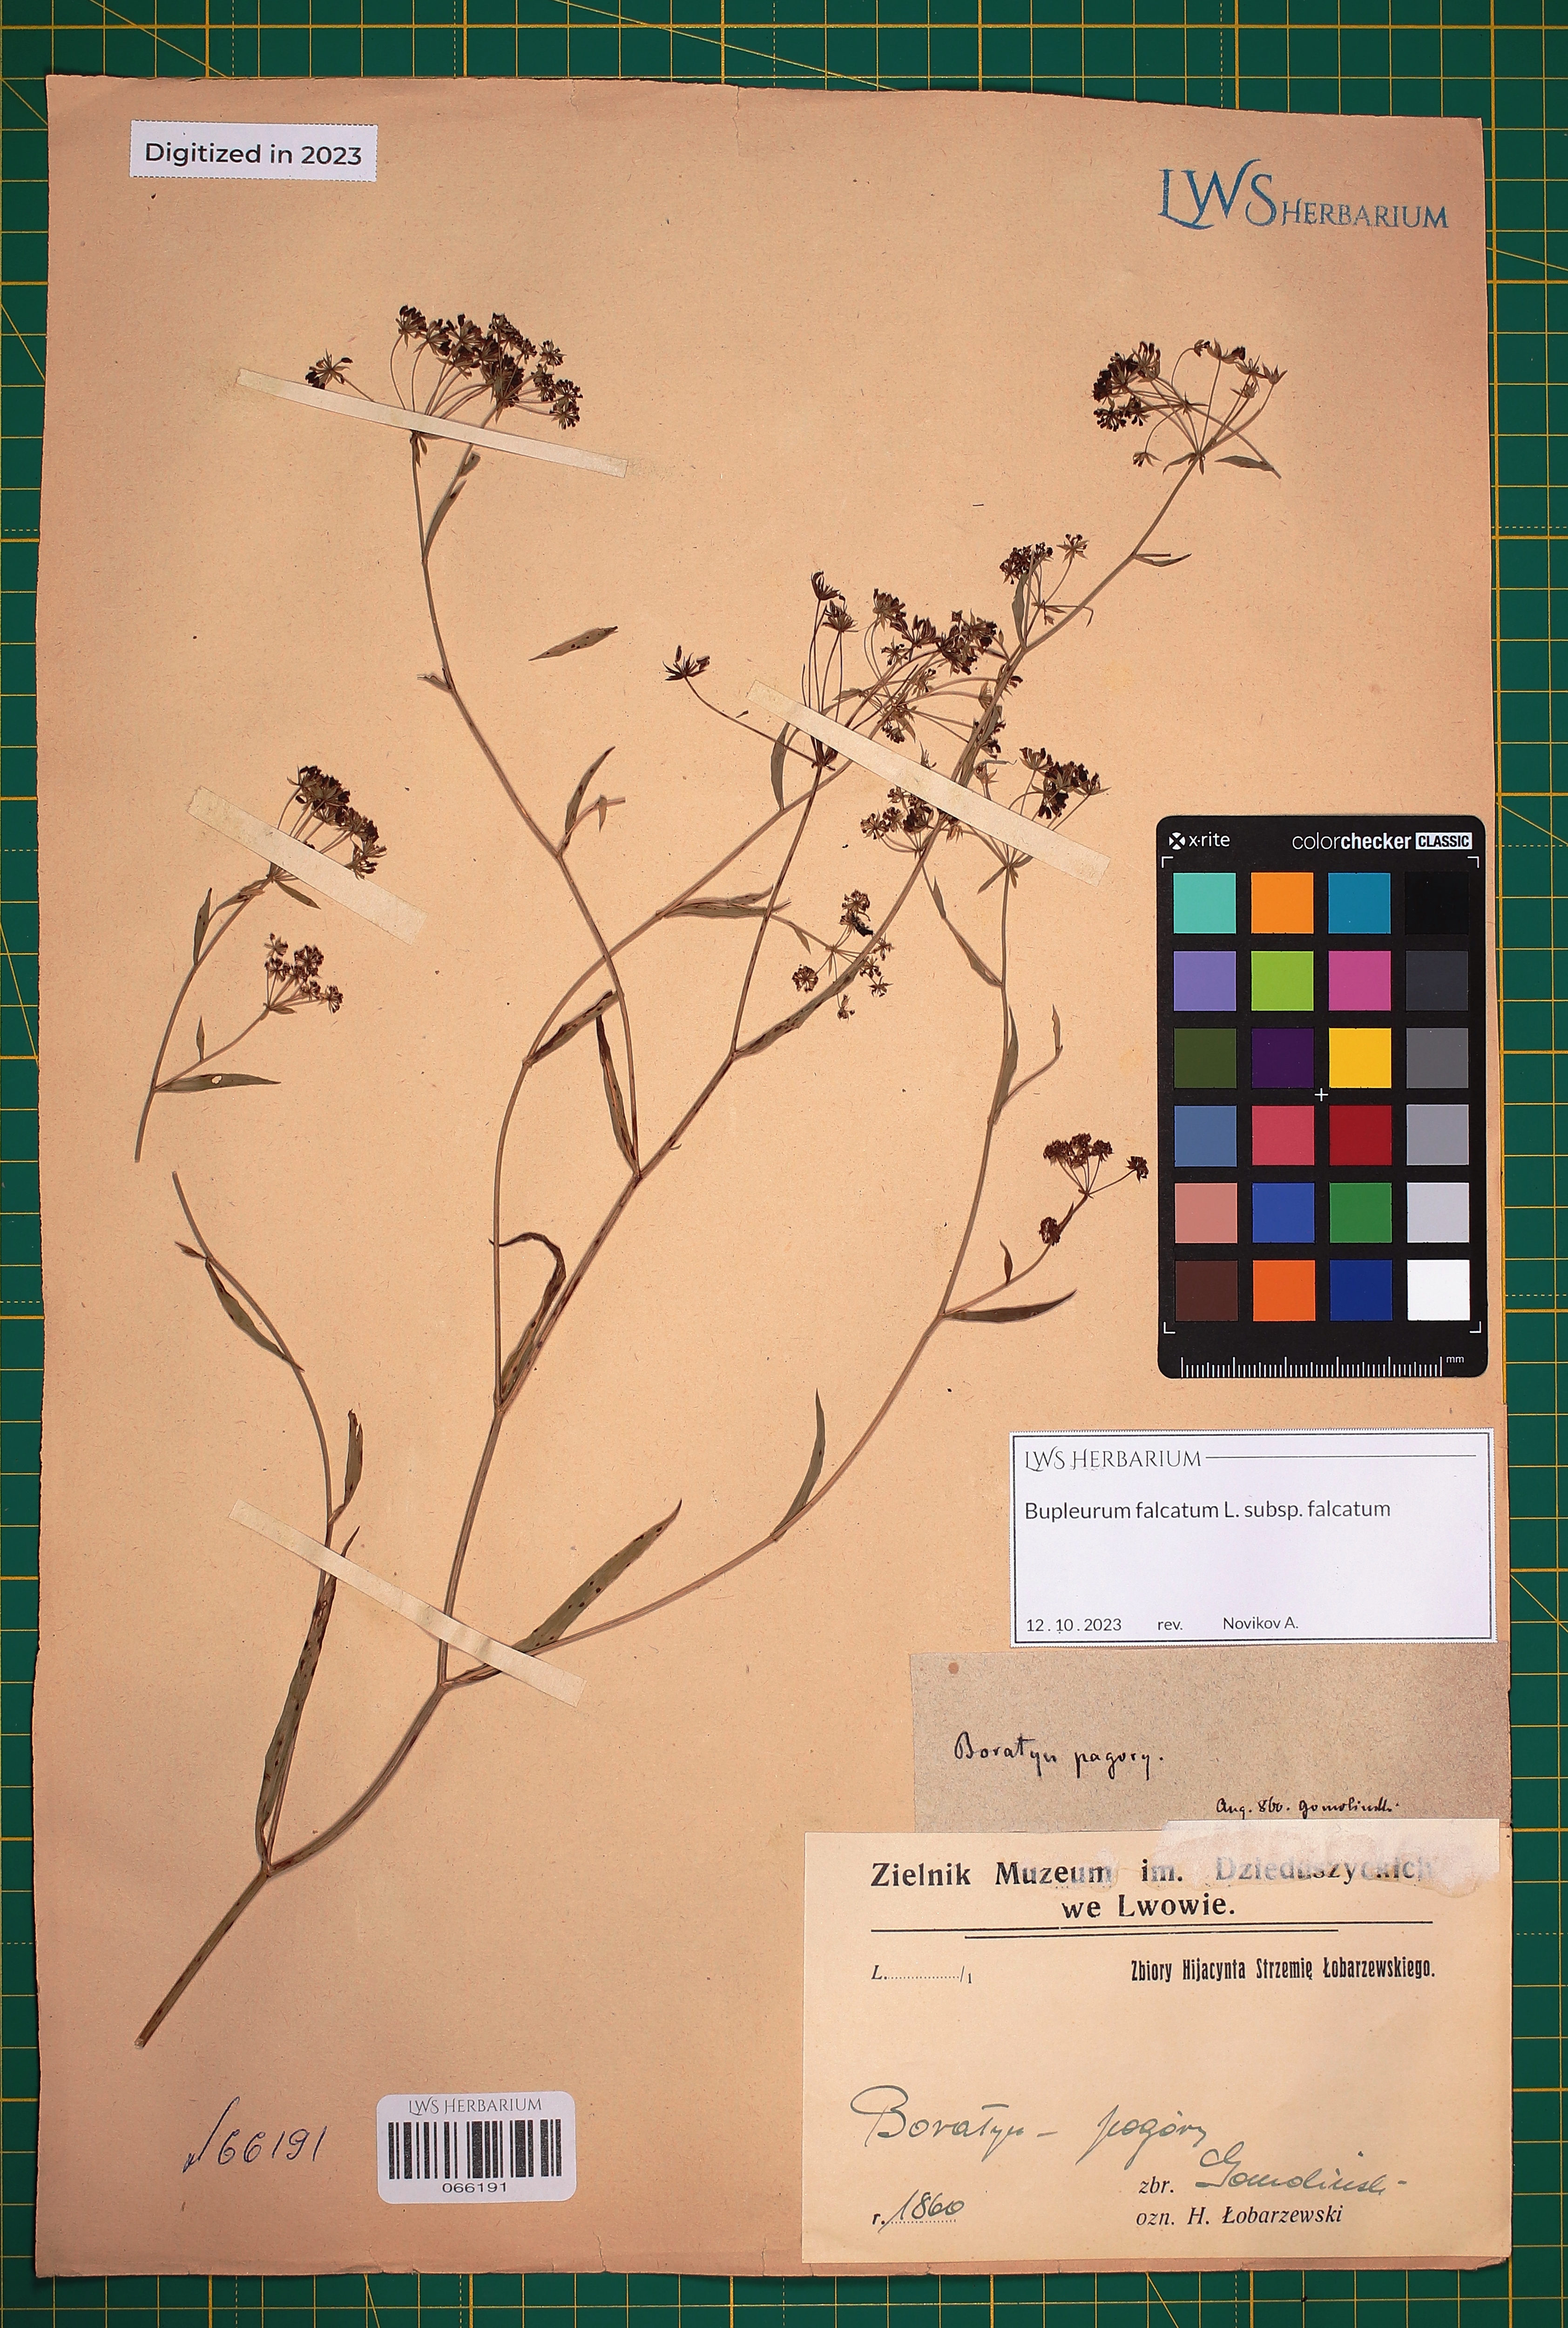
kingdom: Plantae
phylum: Tracheophyta
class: Magnoliopsida
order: Apiales
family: Apiaceae
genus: Bupleurum
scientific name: Bupleurum falcatum
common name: Sickle-leaved hare's-ear
